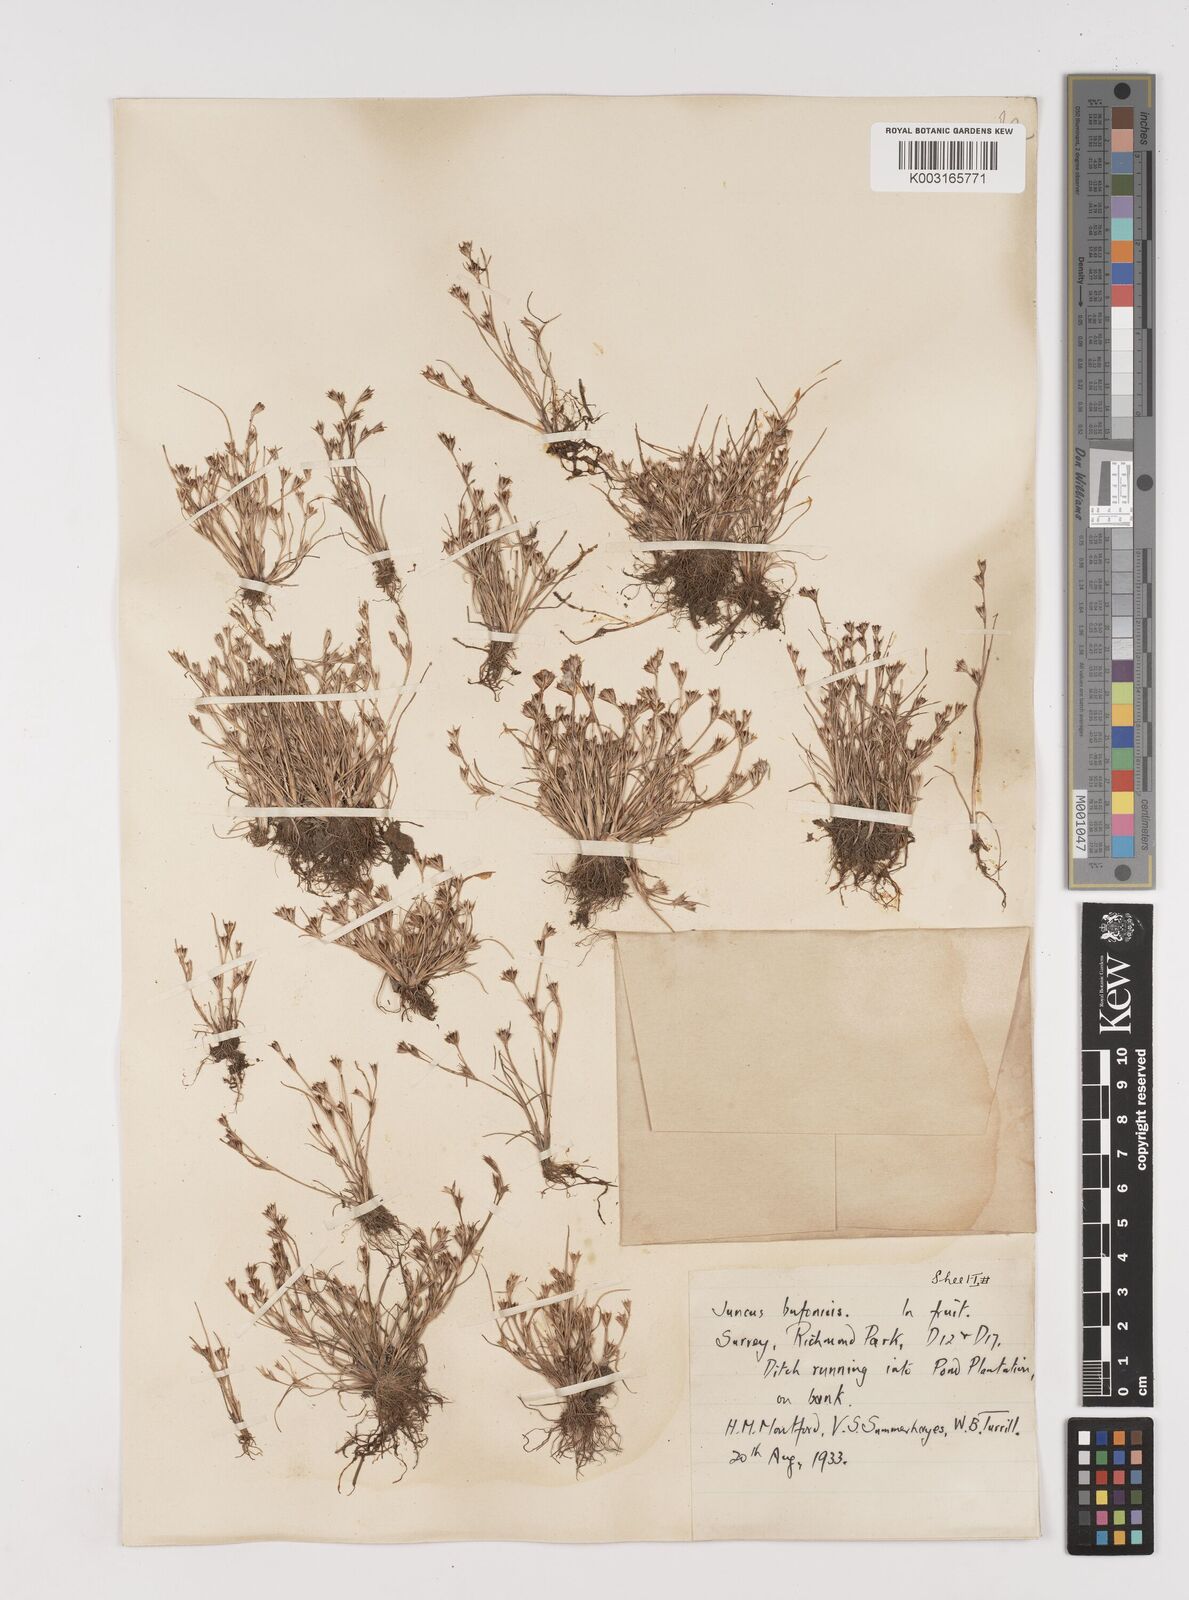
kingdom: Plantae
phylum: Tracheophyta
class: Liliopsida
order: Poales
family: Juncaceae
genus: Juncus
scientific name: Juncus bufonius
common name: Toad rush
